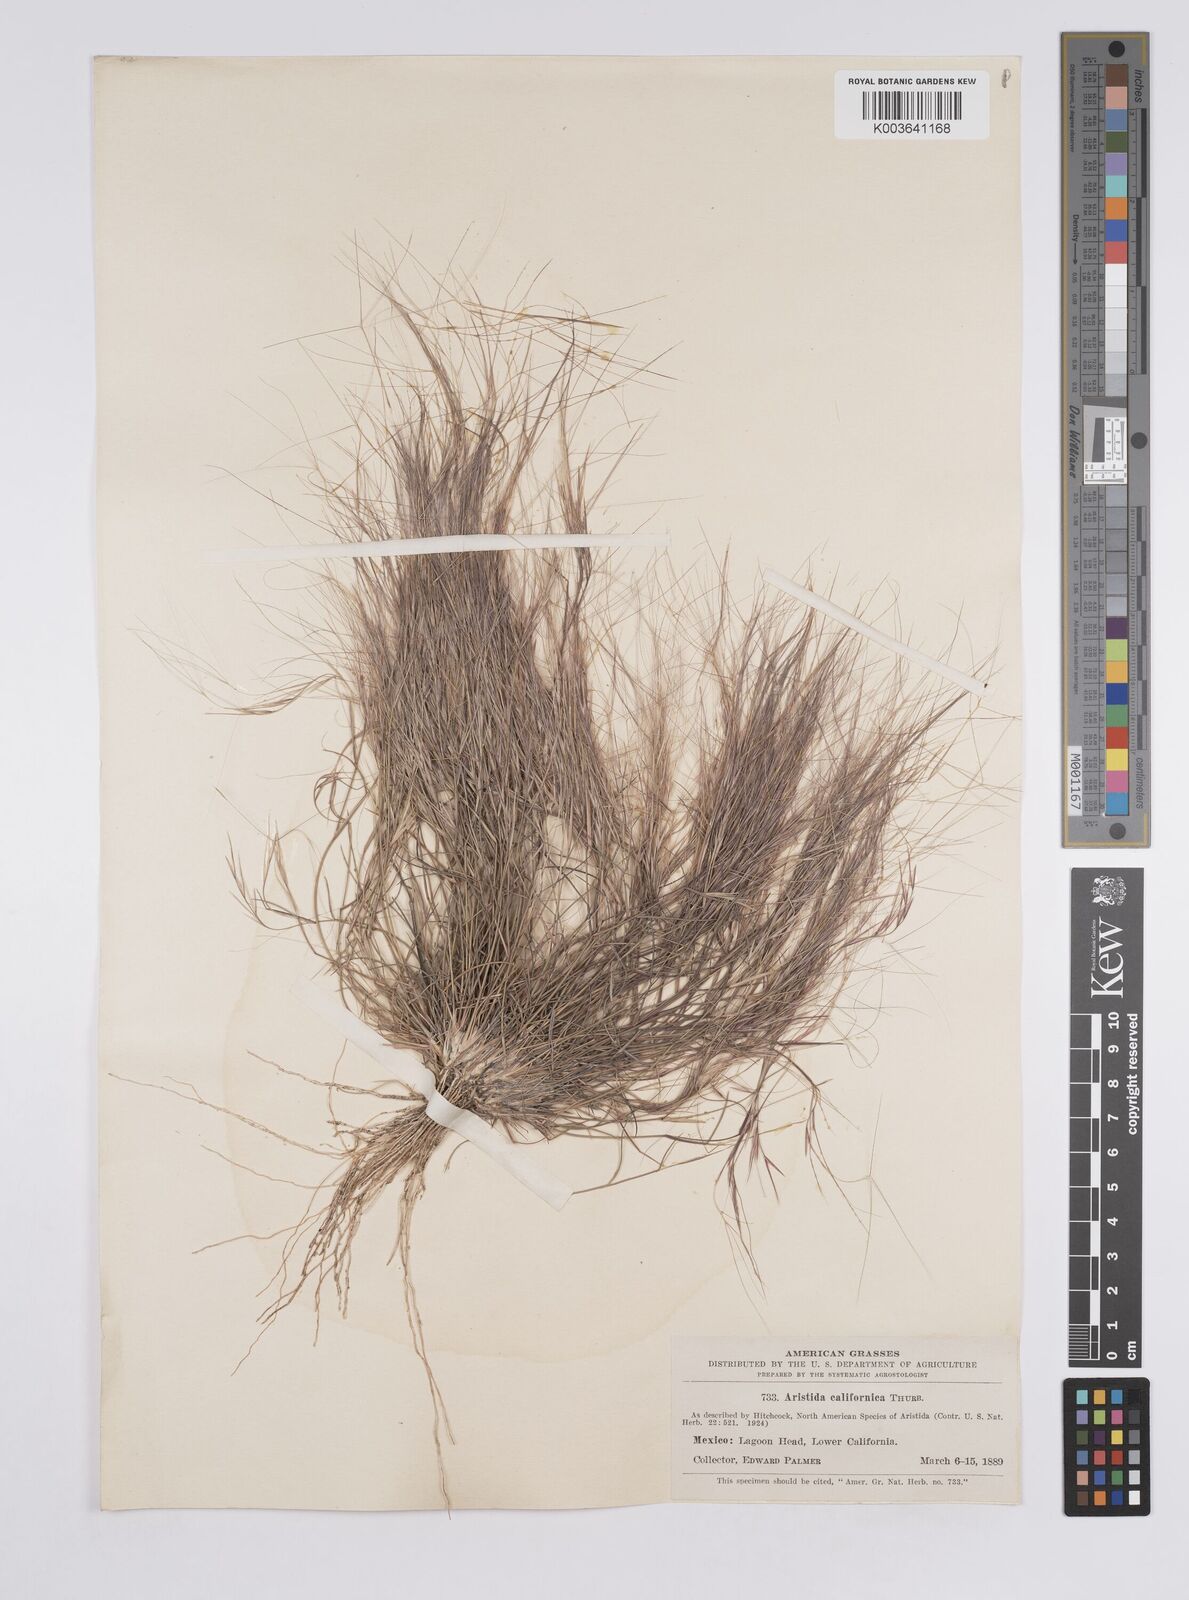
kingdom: Plantae
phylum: Tracheophyta
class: Liliopsida
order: Poales
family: Poaceae
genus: Aristida
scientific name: Aristida californica
